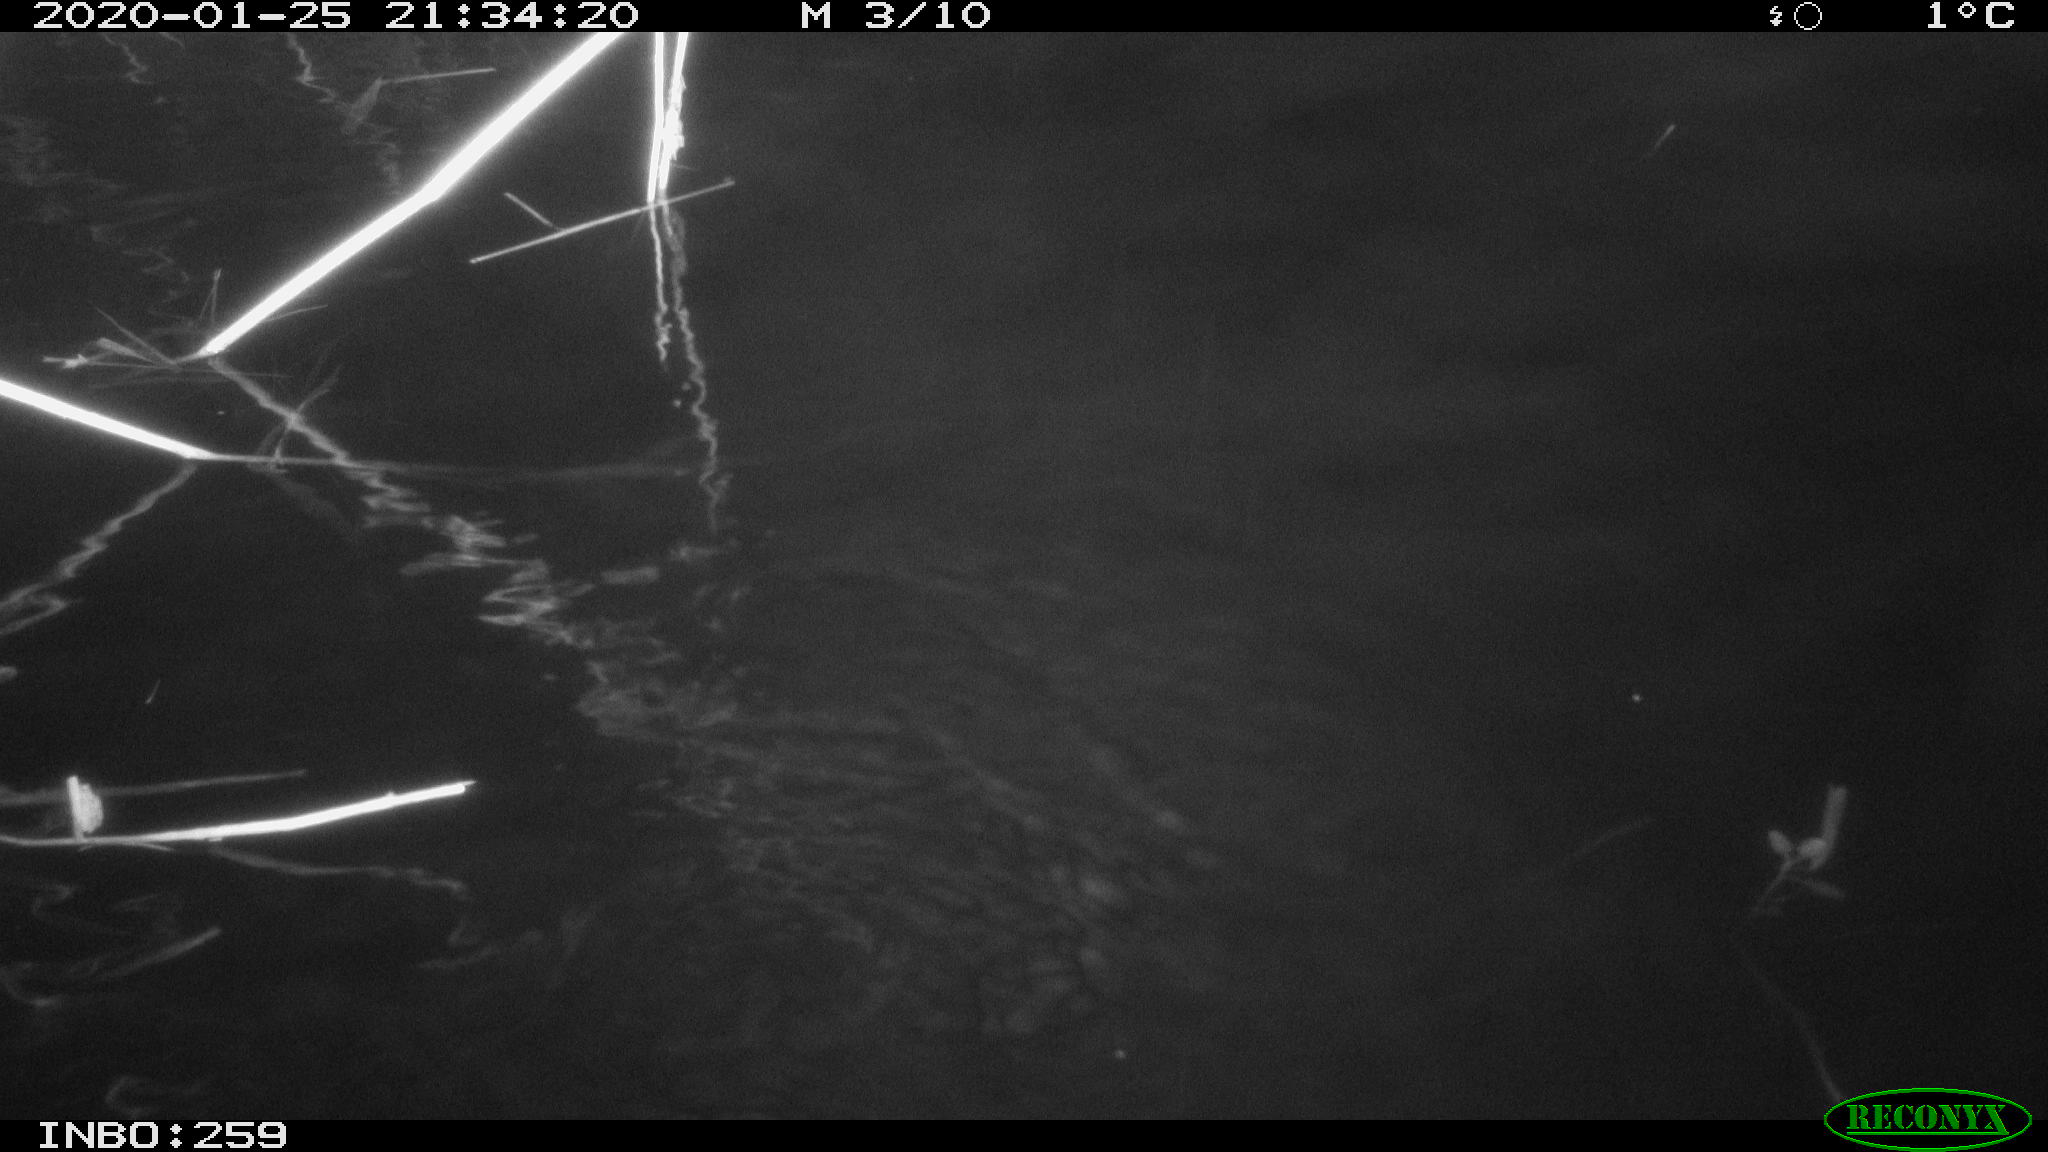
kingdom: Animalia
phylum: Chordata
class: Mammalia
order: Rodentia
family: Cricetidae
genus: Ondatra
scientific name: Ondatra zibethicus
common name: Muskrat
